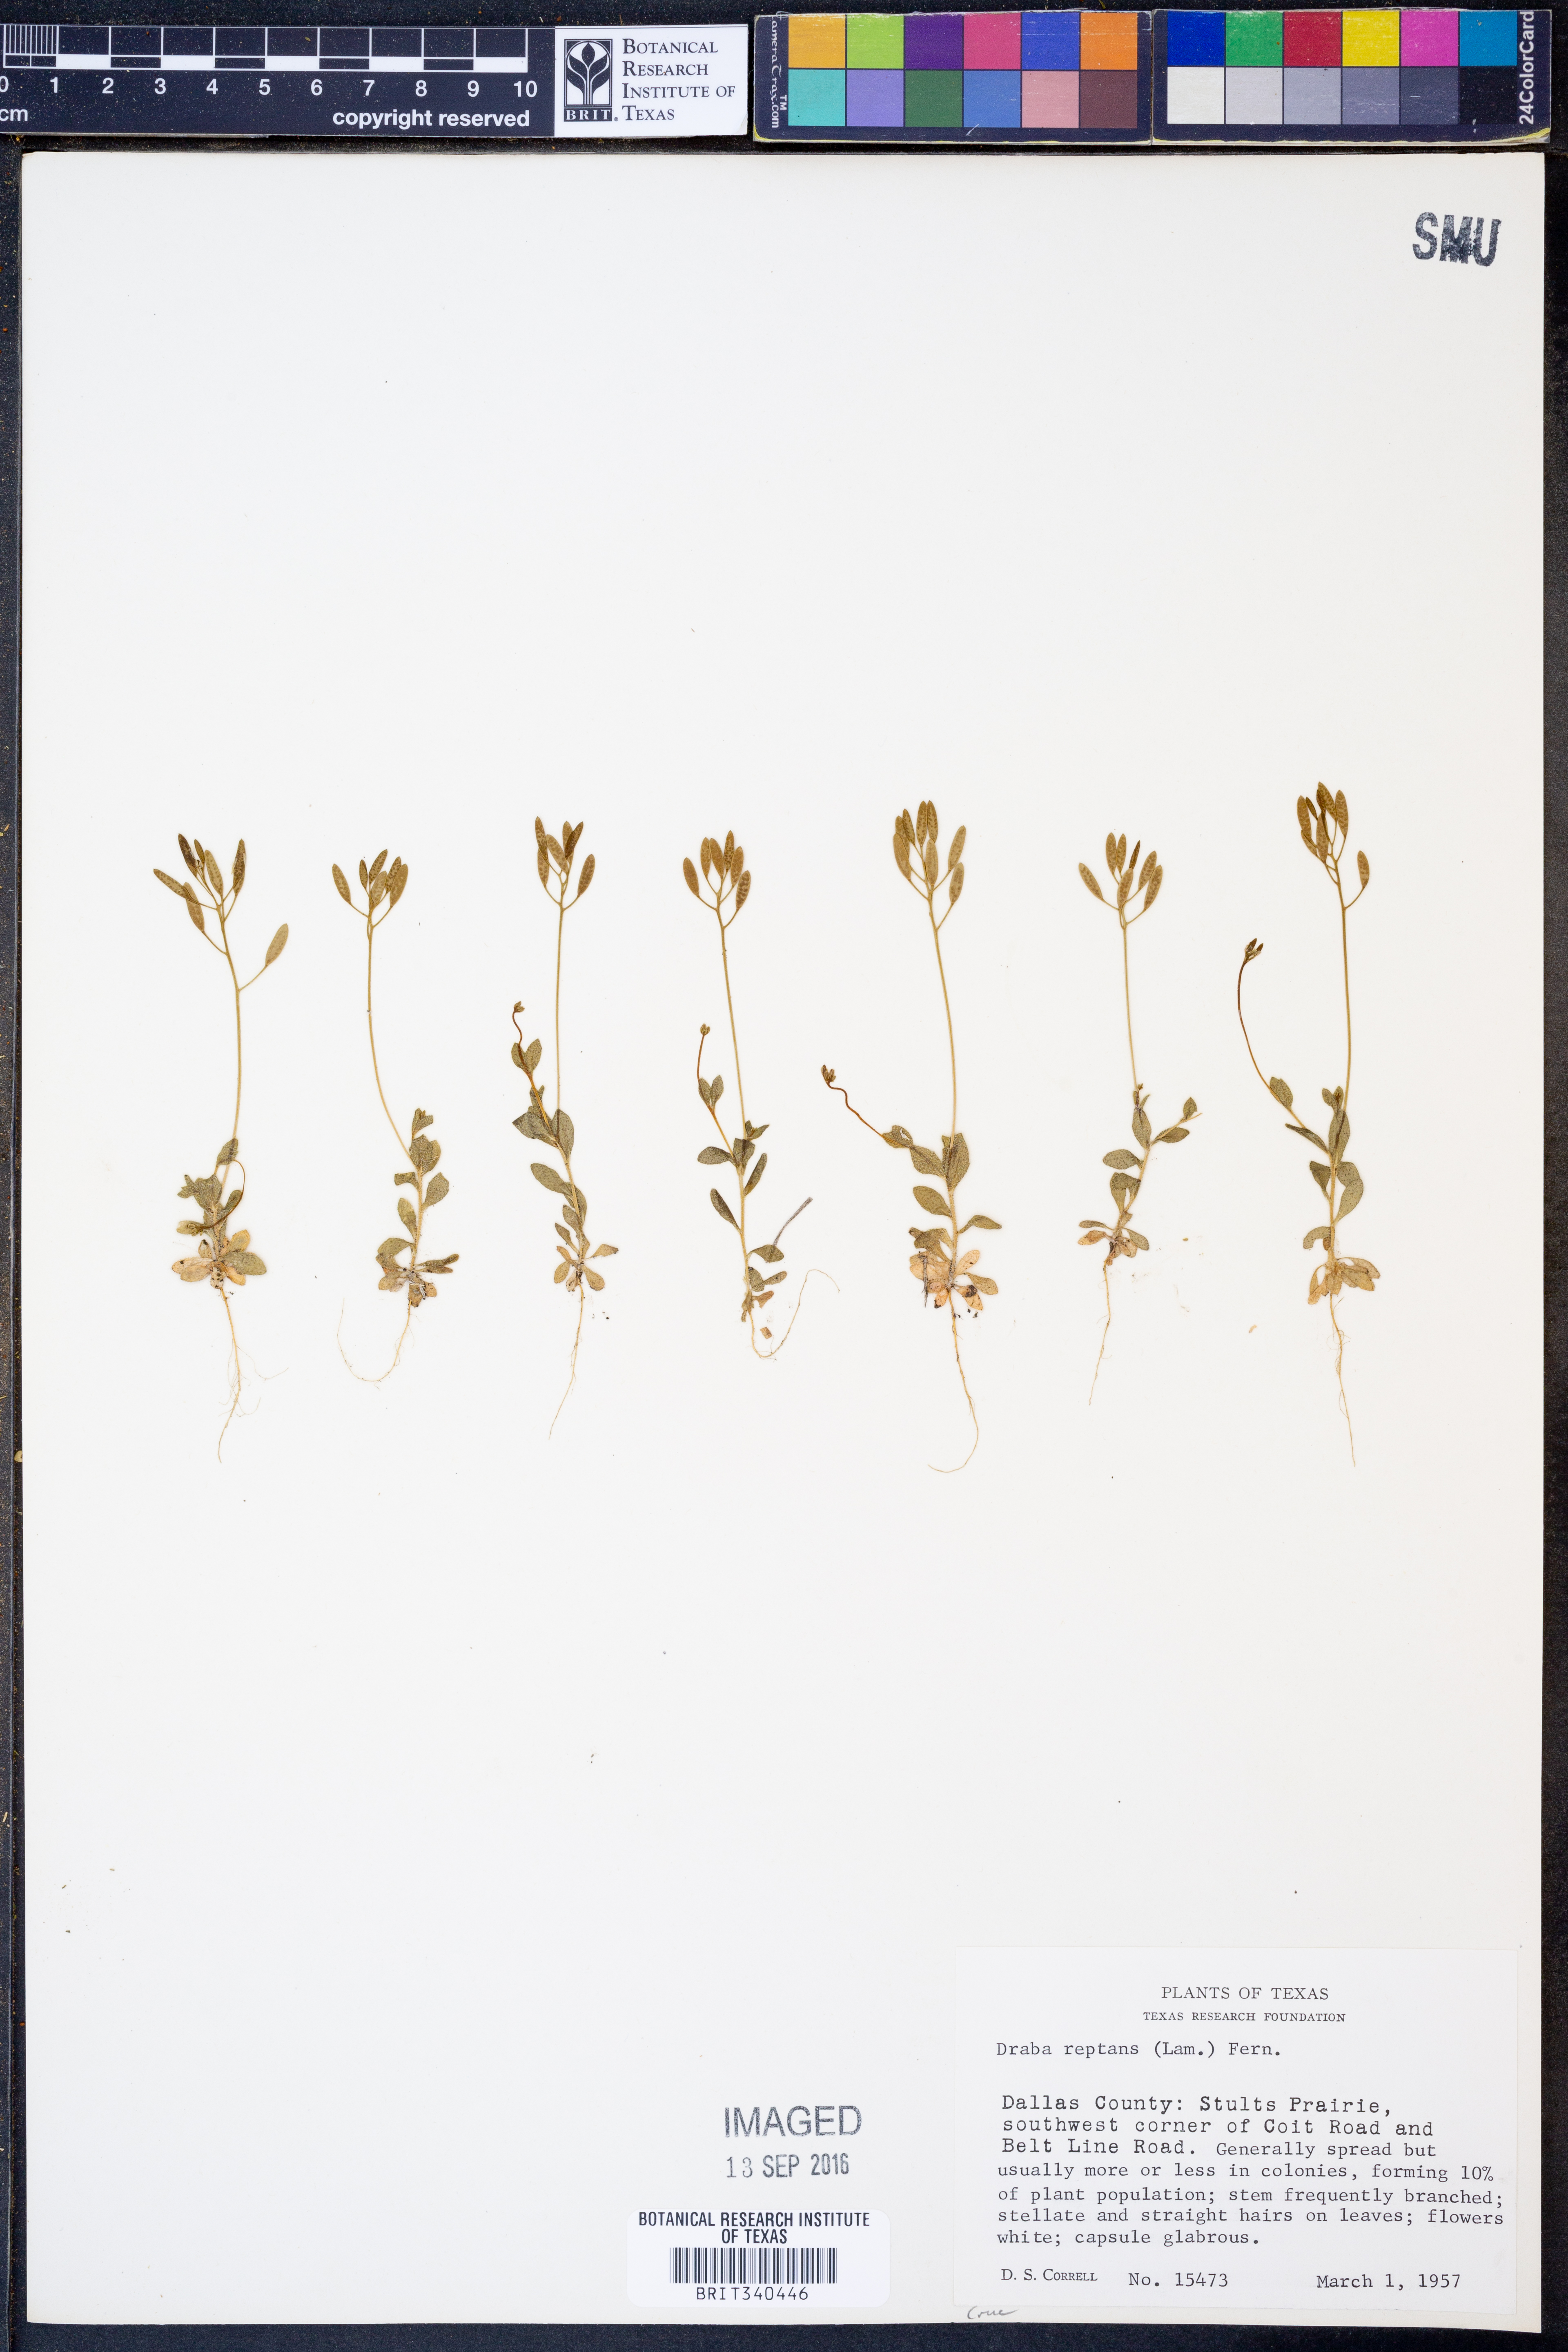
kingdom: Plantae
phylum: Tracheophyta
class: Magnoliopsida
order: Brassicales
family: Brassicaceae
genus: Tomostima
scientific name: Tomostima reptans
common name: Carolina draba
